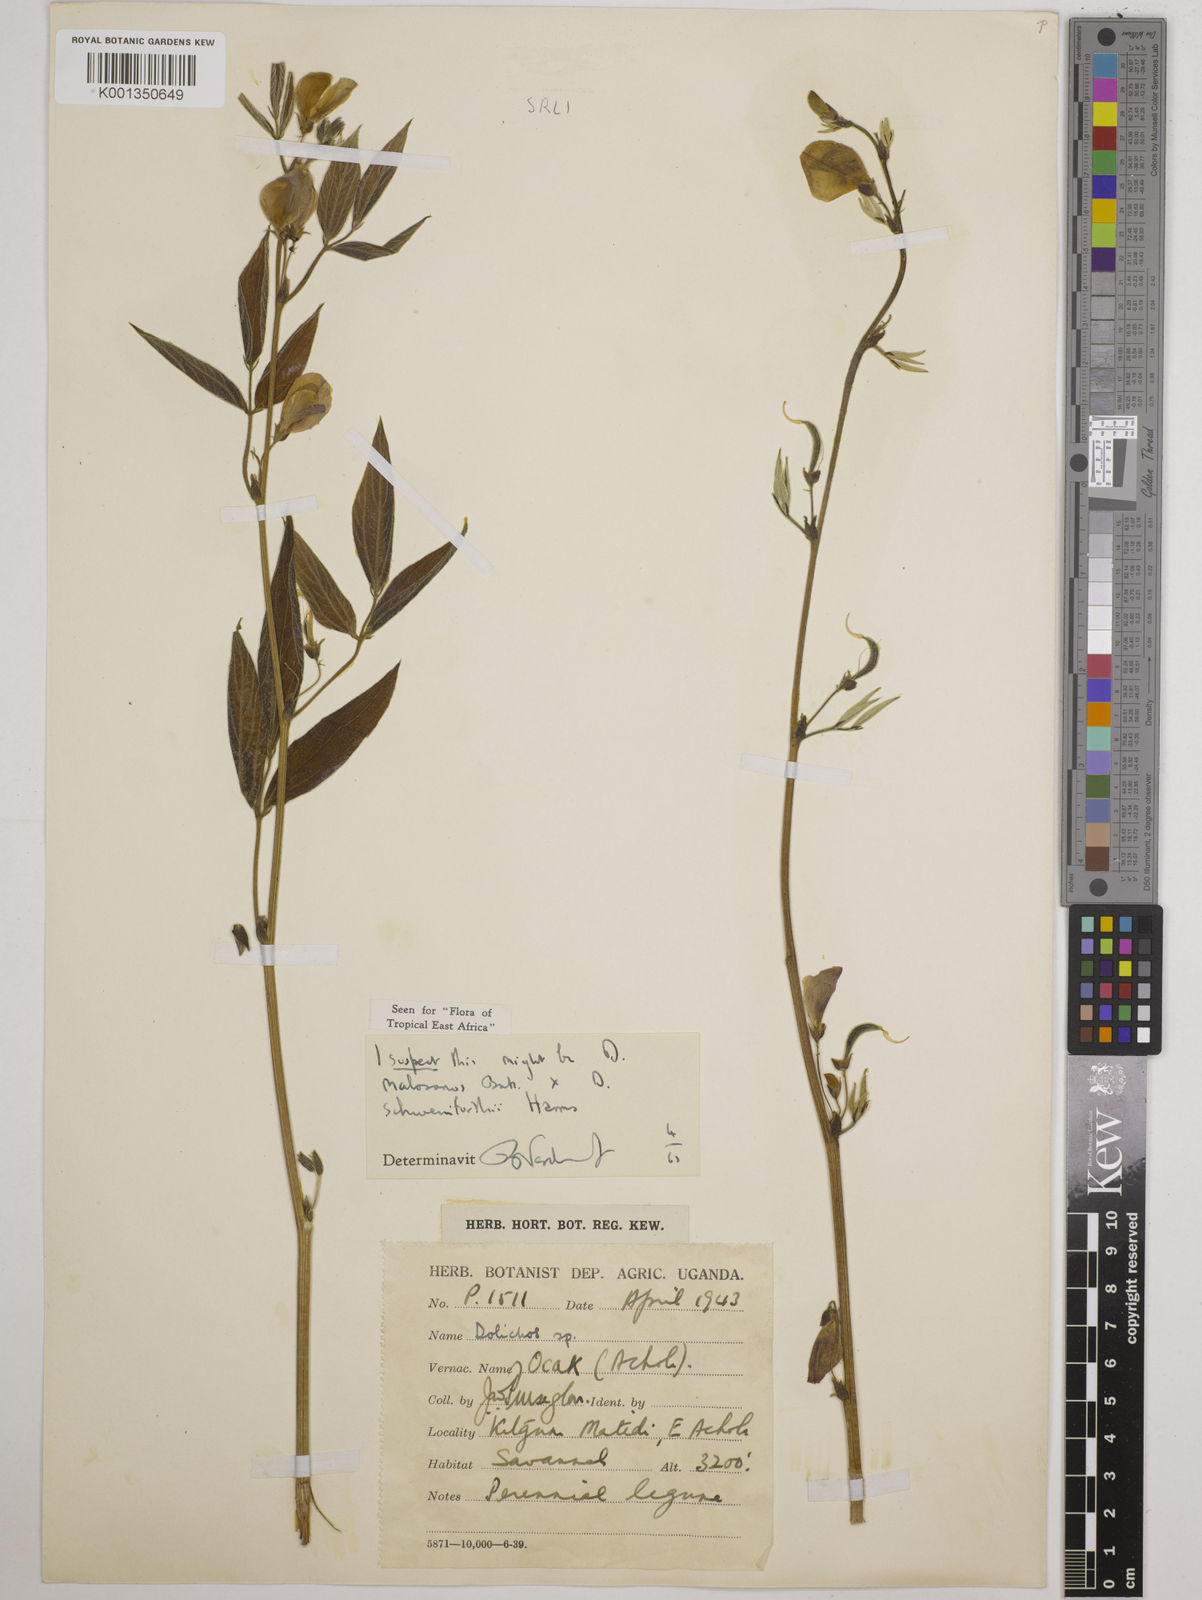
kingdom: Plantae
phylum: Tracheophyta
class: Magnoliopsida
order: Fabales
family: Fabaceae
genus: Dolichos
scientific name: Dolichos
